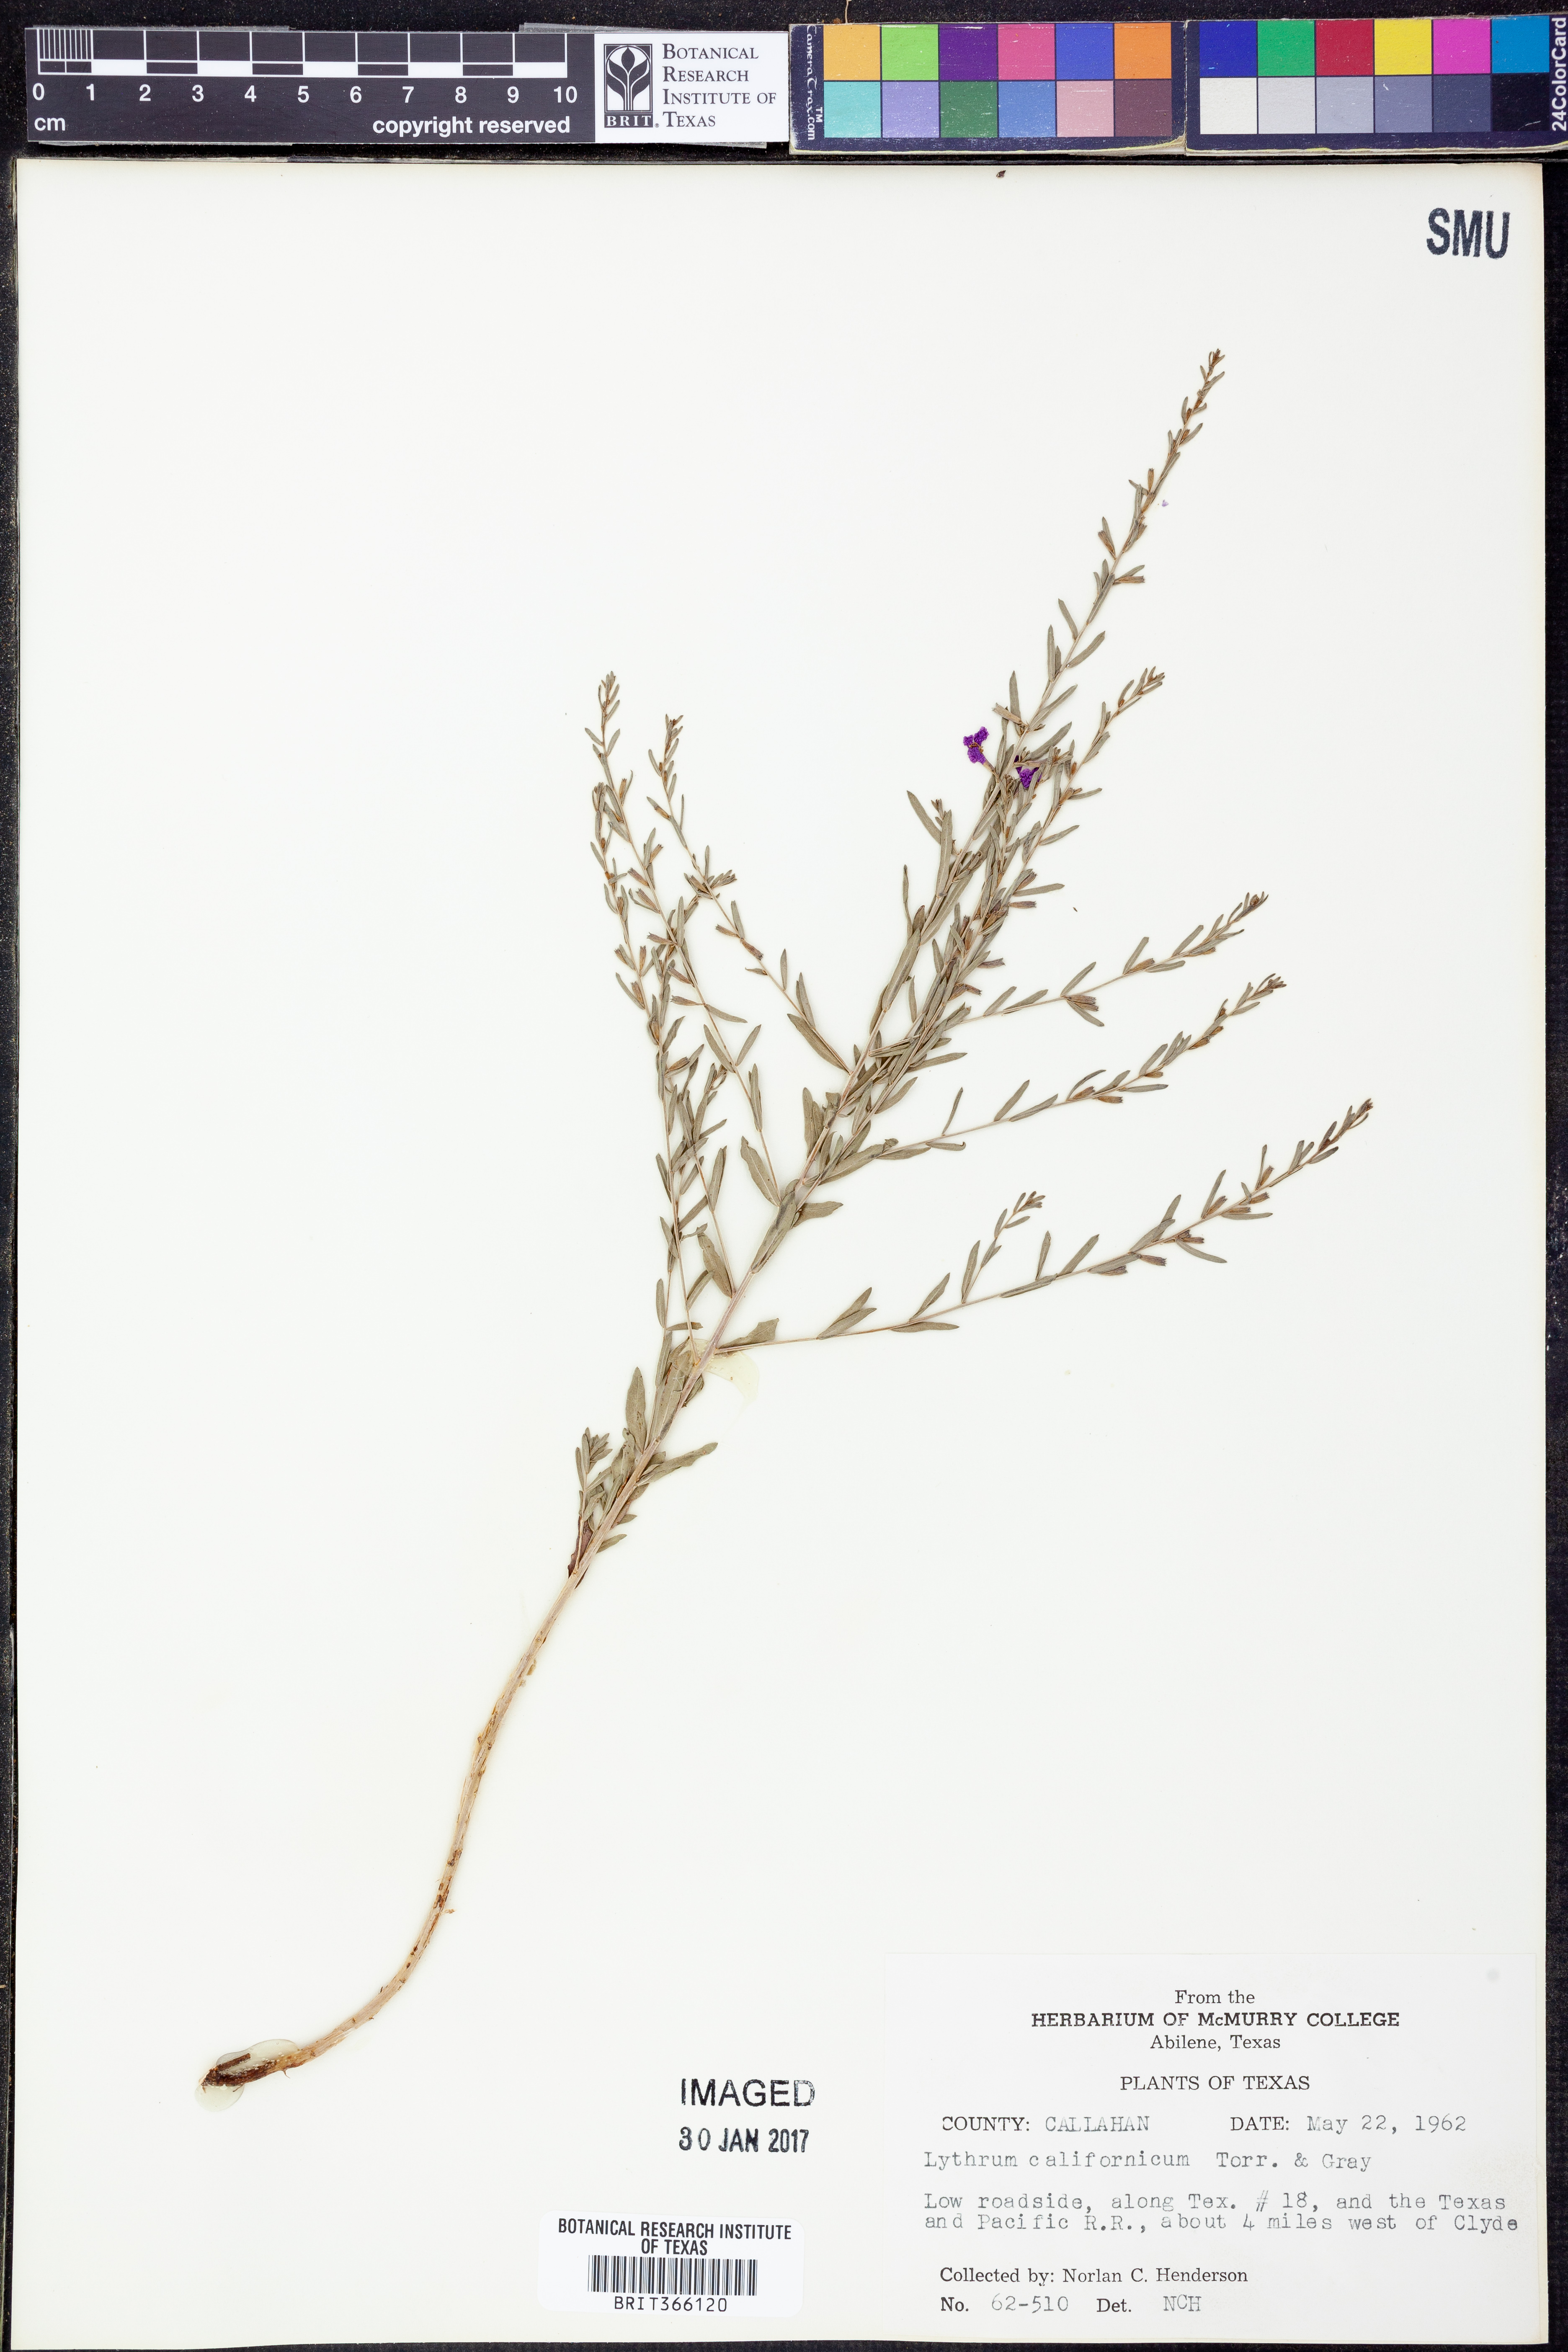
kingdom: Plantae
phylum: Tracheophyta
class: Magnoliopsida
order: Myrtales
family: Lythraceae
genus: Lythrum
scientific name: Lythrum californicum
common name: California loosestrife
